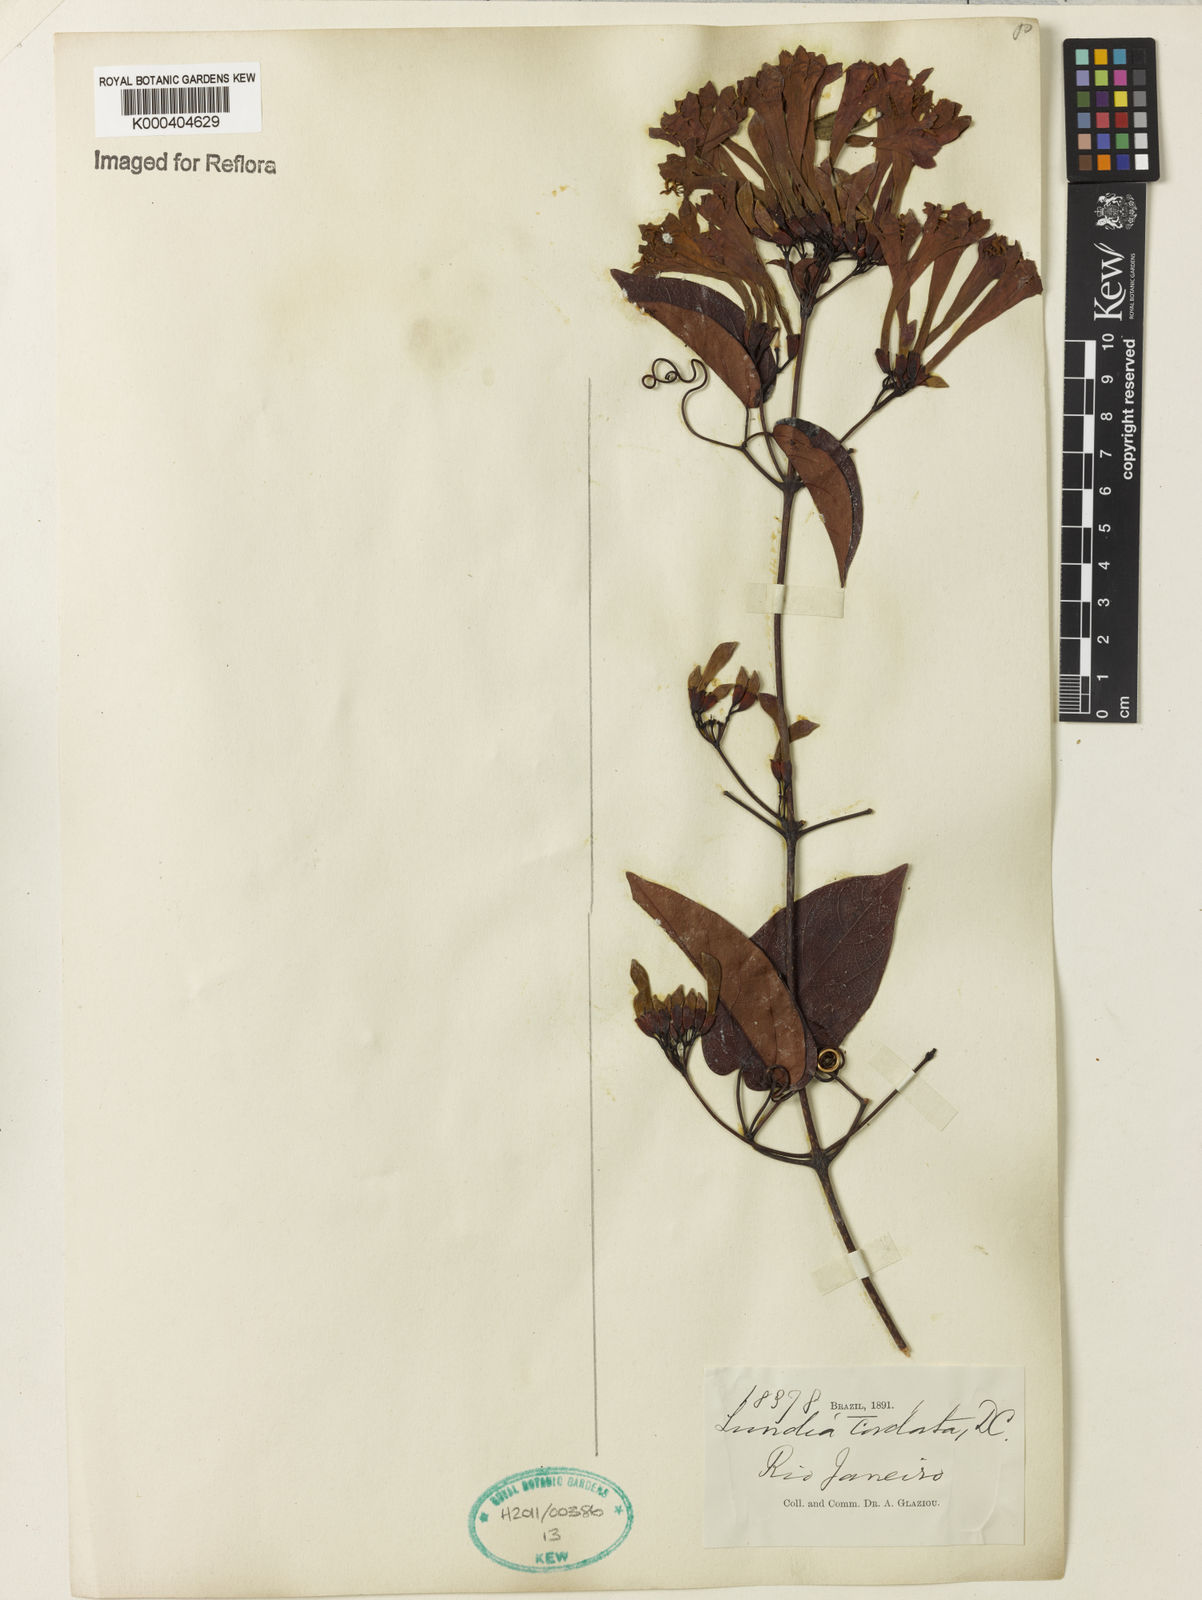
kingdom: Plantae
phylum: Tracheophyta
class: Magnoliopsida
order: Lamiales
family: Bignoniaceae
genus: Lundia
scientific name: Lundia corymbifera
